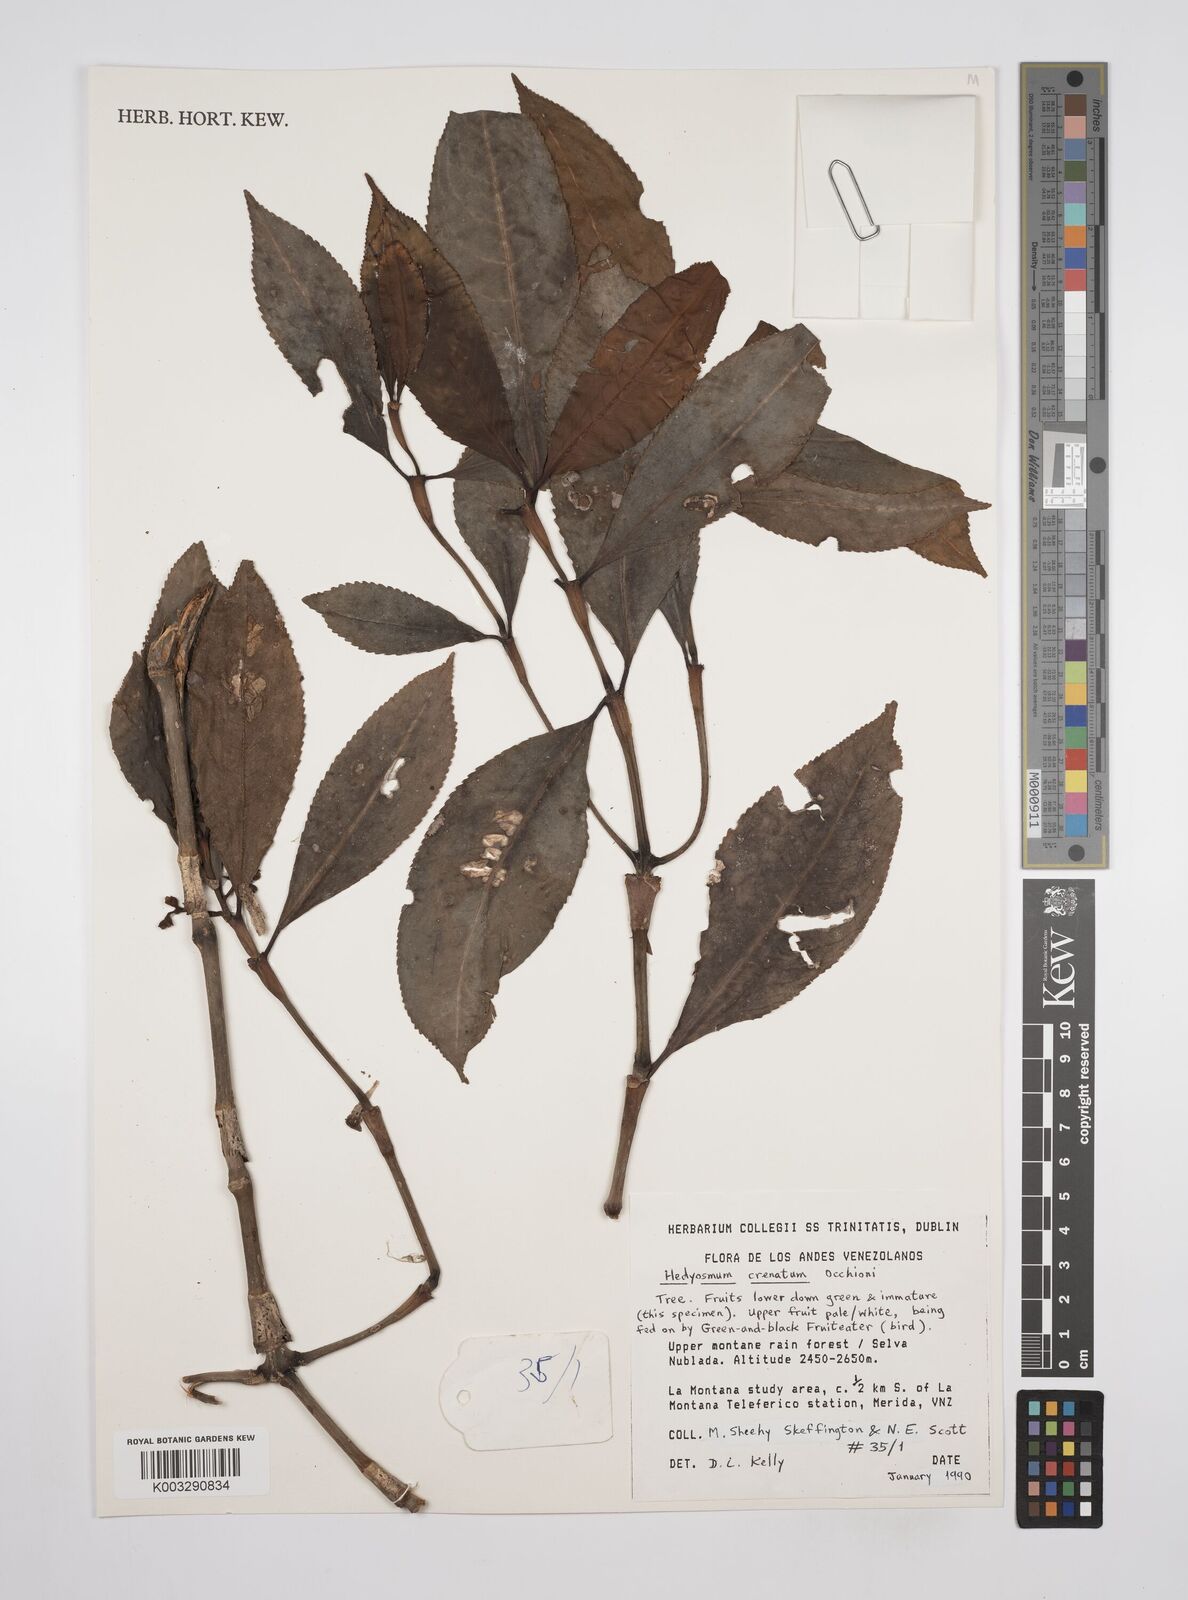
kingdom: Plantae
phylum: Tracheophyta
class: Magnoliopsida
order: Chloranthales
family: Chloranthaceae
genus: Hedyosmum
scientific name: Hedyosmum crenatum
